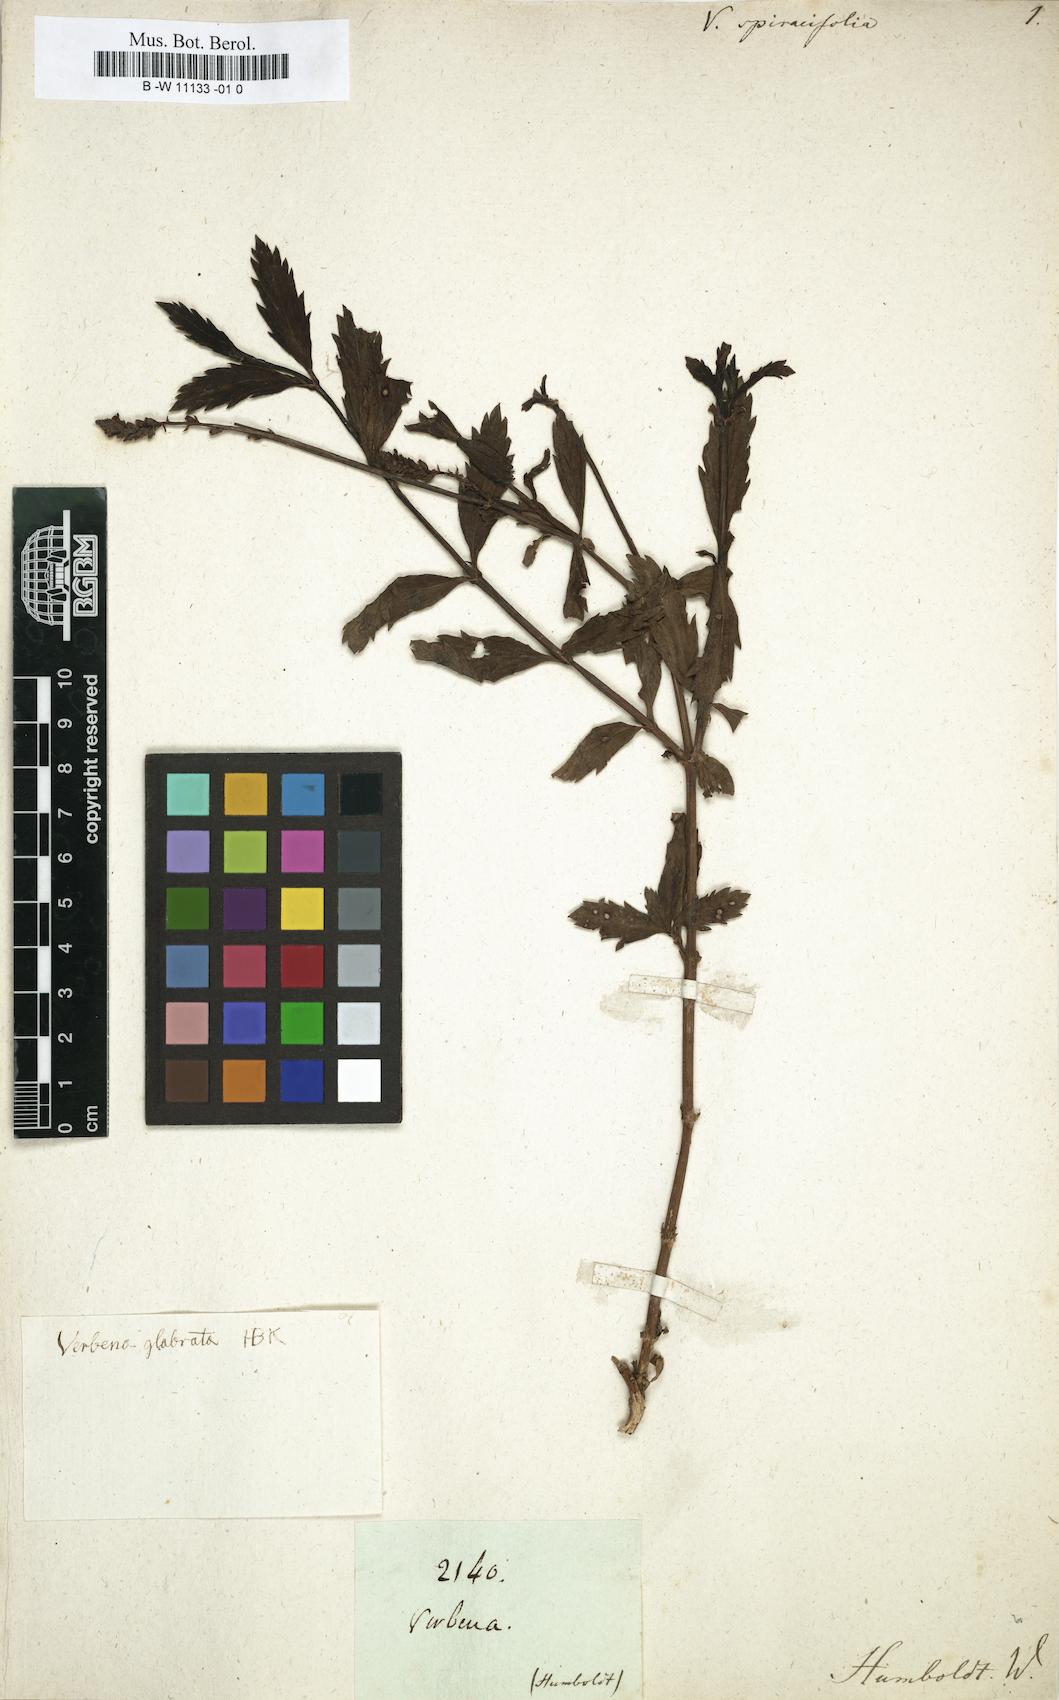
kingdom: Plantae
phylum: Tracheophyta
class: Magnoliopsida
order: Lamiales
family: Verbenaceae
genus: Verbena
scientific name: Verbena
